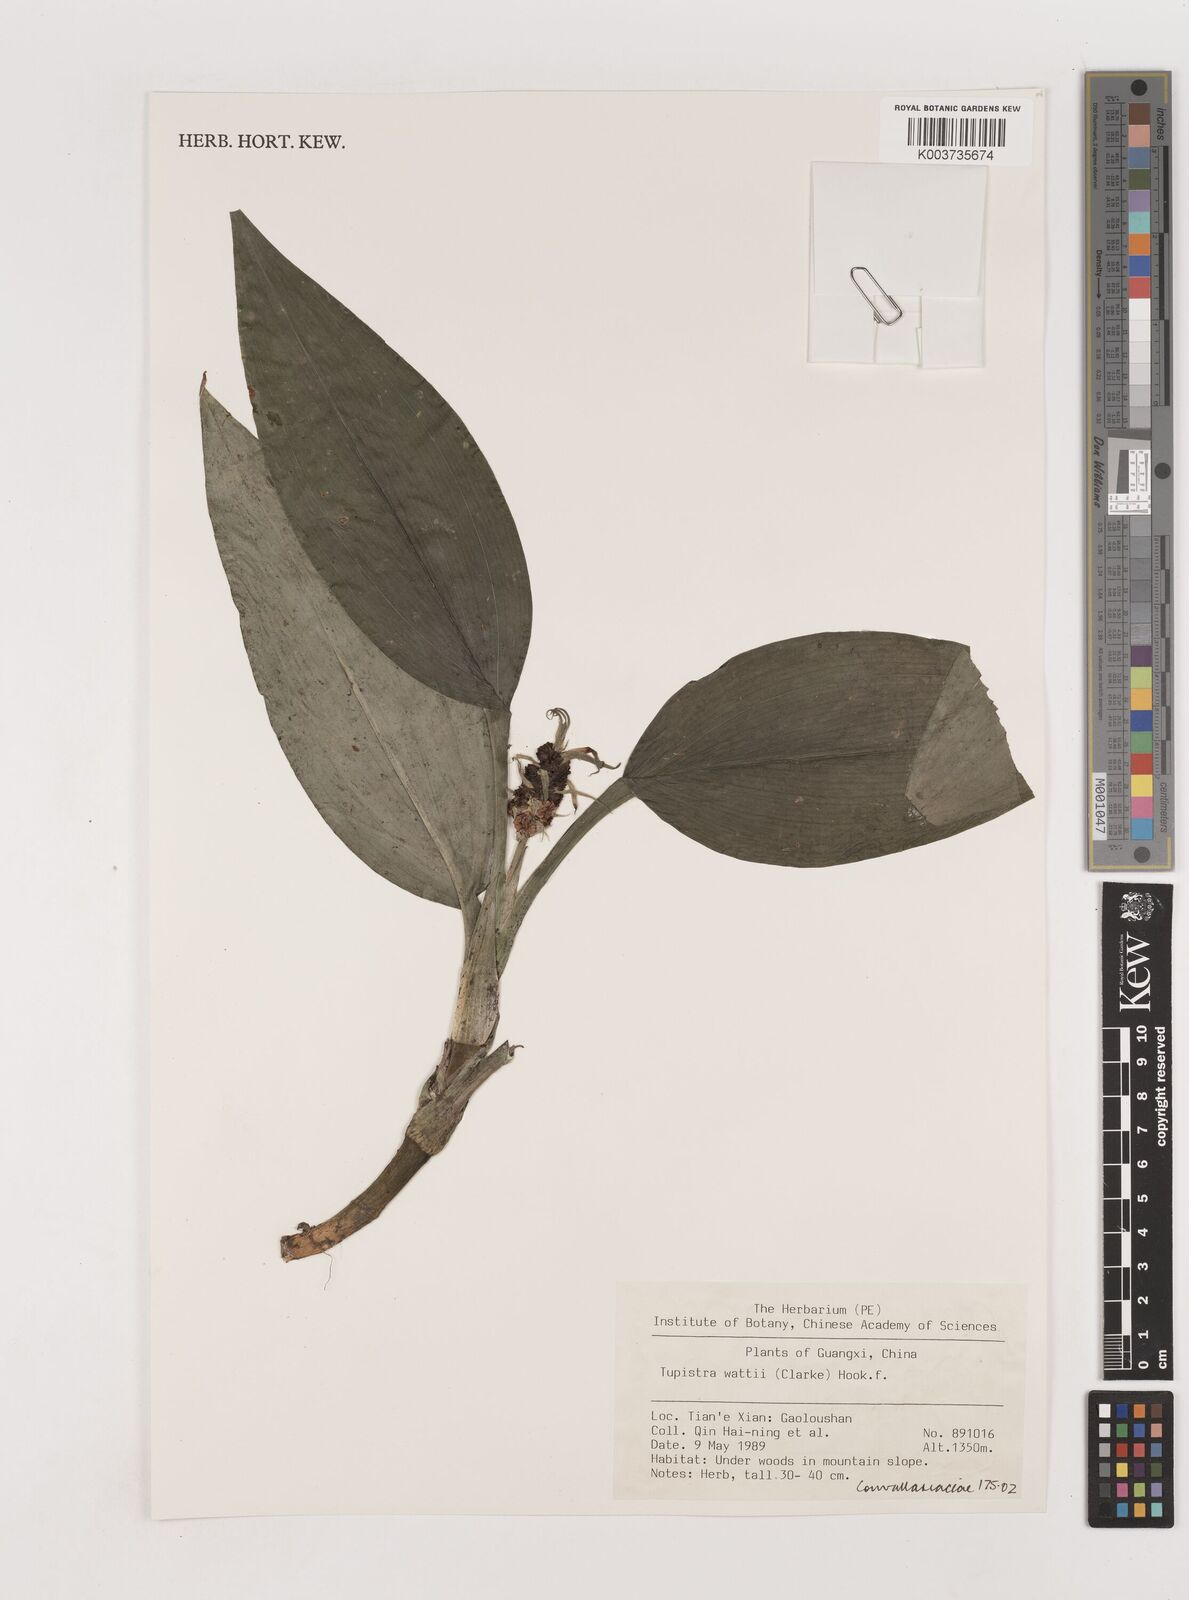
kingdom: Plantae
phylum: Tracheophyta
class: Liliopsida
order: Asparagales
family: Asparagaceae
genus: Rohdea
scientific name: Rohdea wattii
